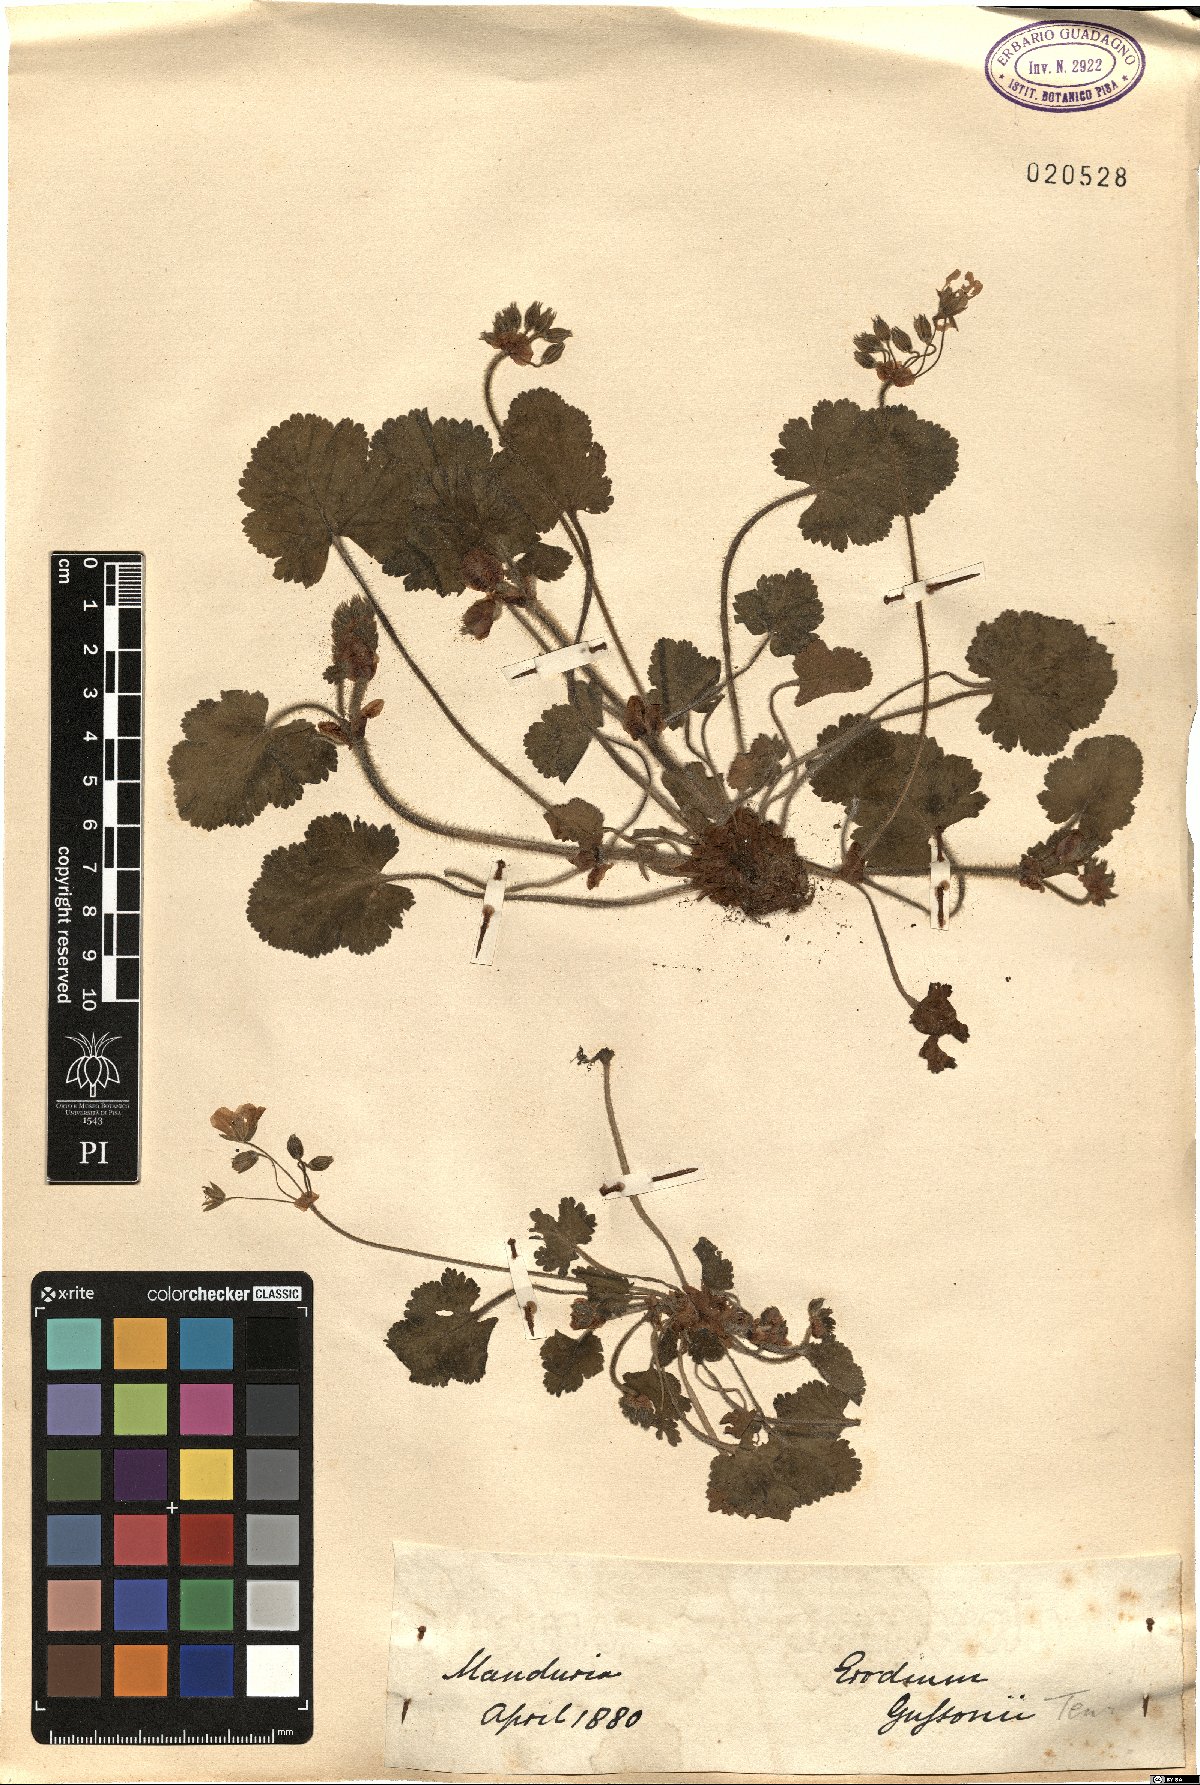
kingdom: Plantae
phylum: Tracheophyta
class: Magnoliopsida
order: Geraniales
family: Geraniaceae
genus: Erodium
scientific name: Erodium nervulosum
